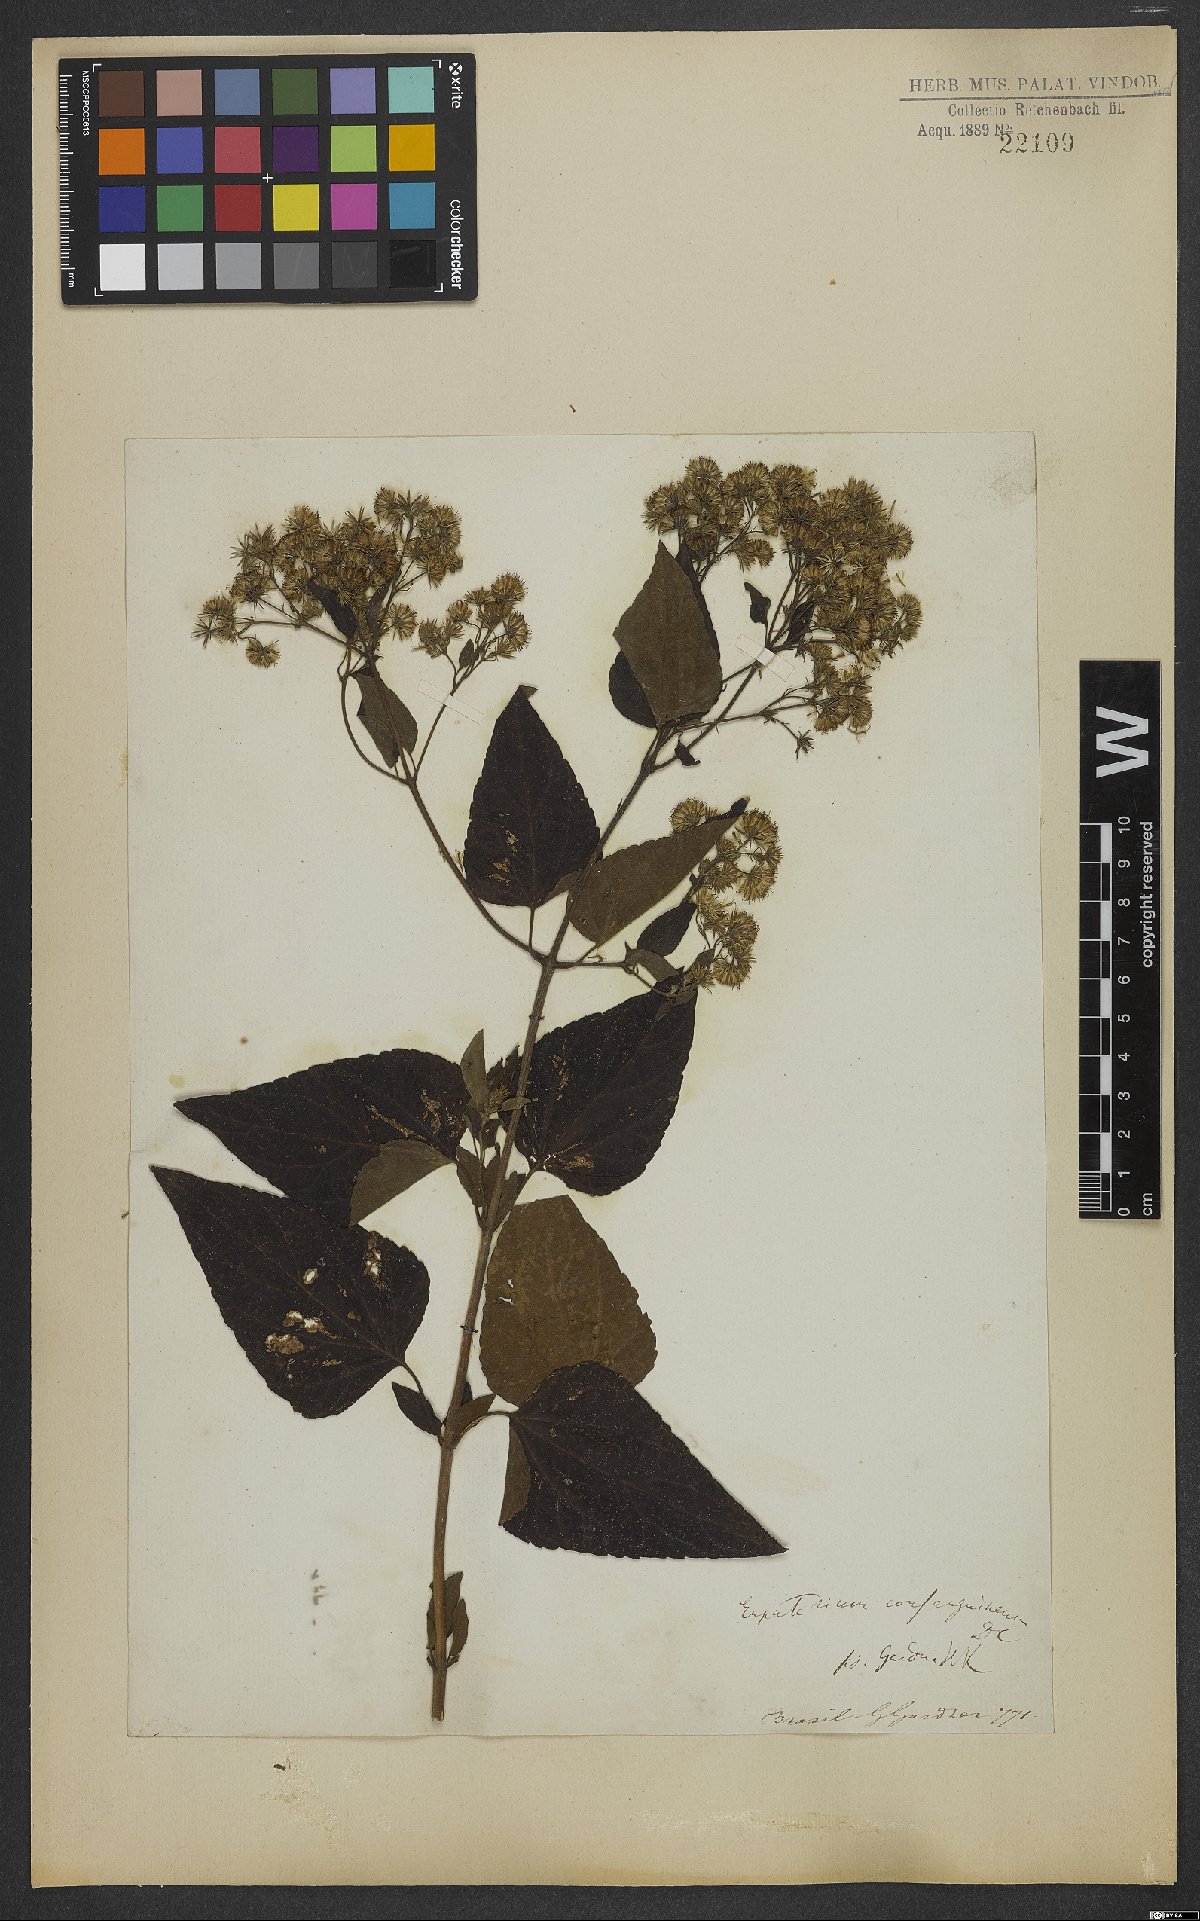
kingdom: Plantae
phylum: Tracheophyta
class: Magnoliopsida
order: Asterales
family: Asteraceae
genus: Koanophyllon
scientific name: Koanophyllon consanguineum
